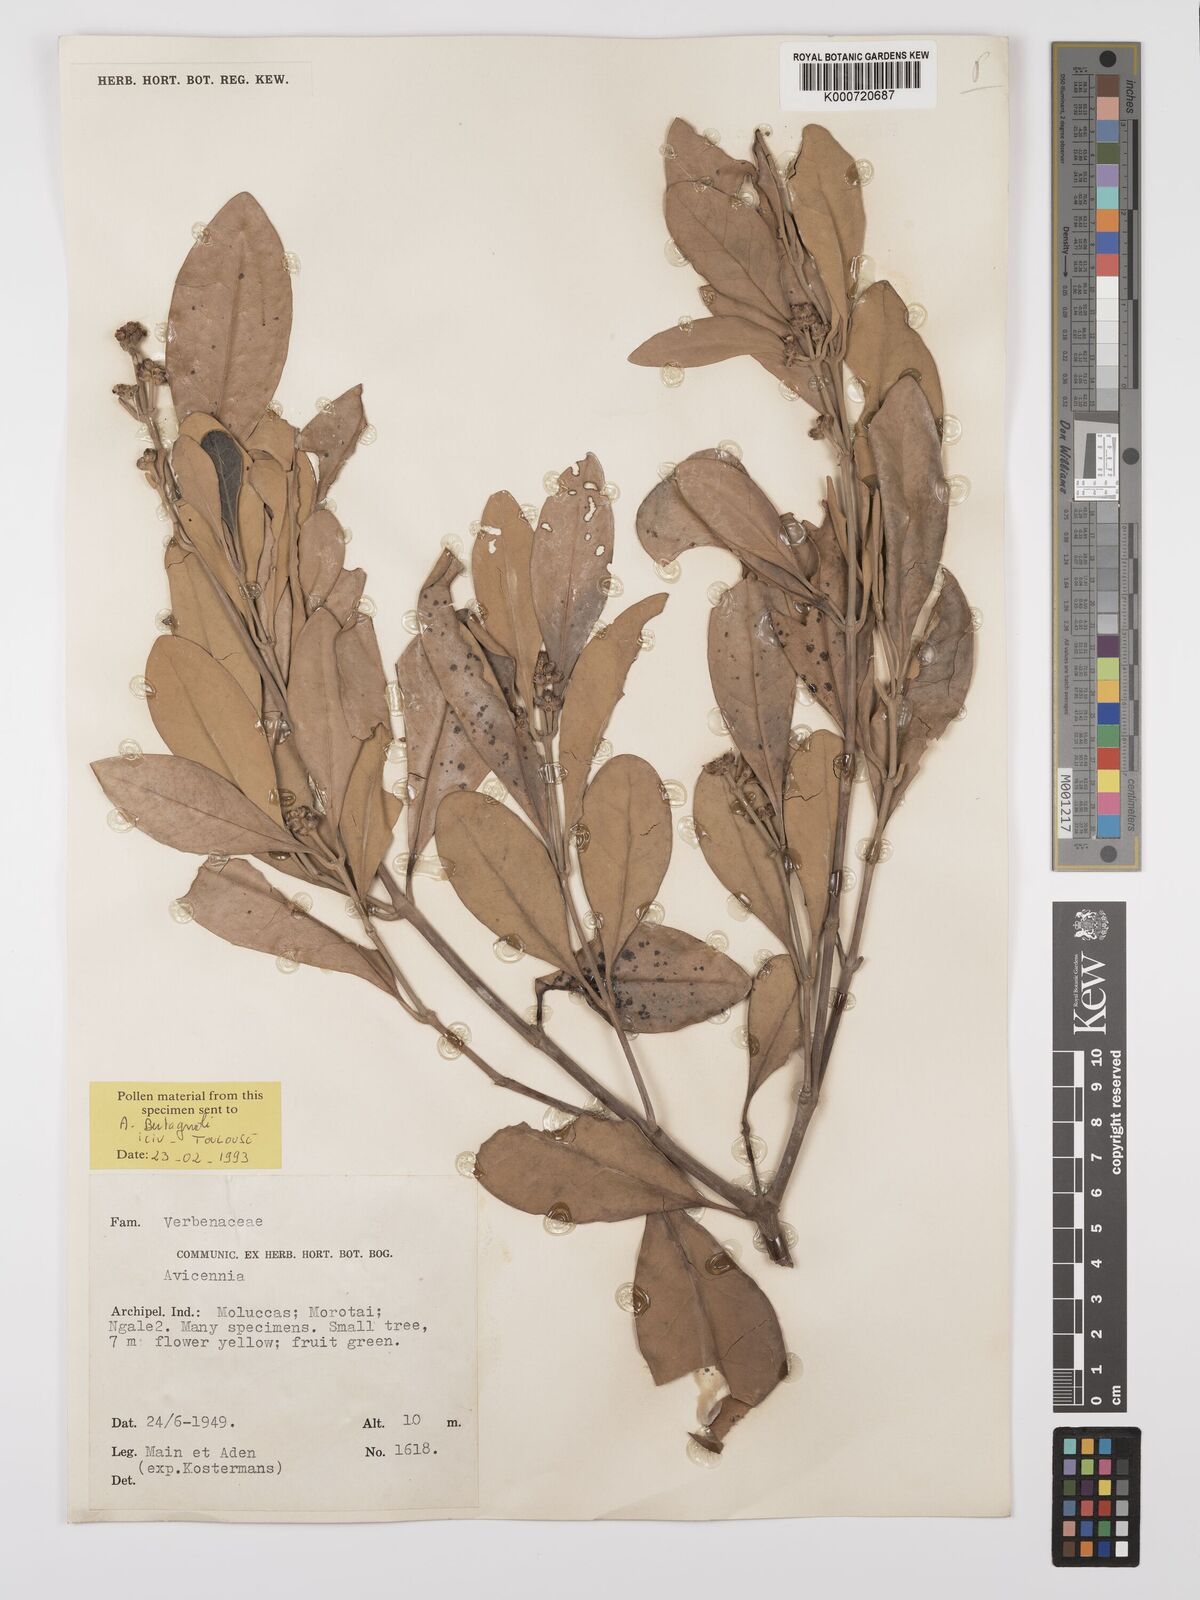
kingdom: Plantae
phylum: Tracheophyta
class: Magnoliopsida
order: Lamiales
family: Acanthaceae
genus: Avicennia
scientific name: Avicennia marina
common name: Gray mangrove
